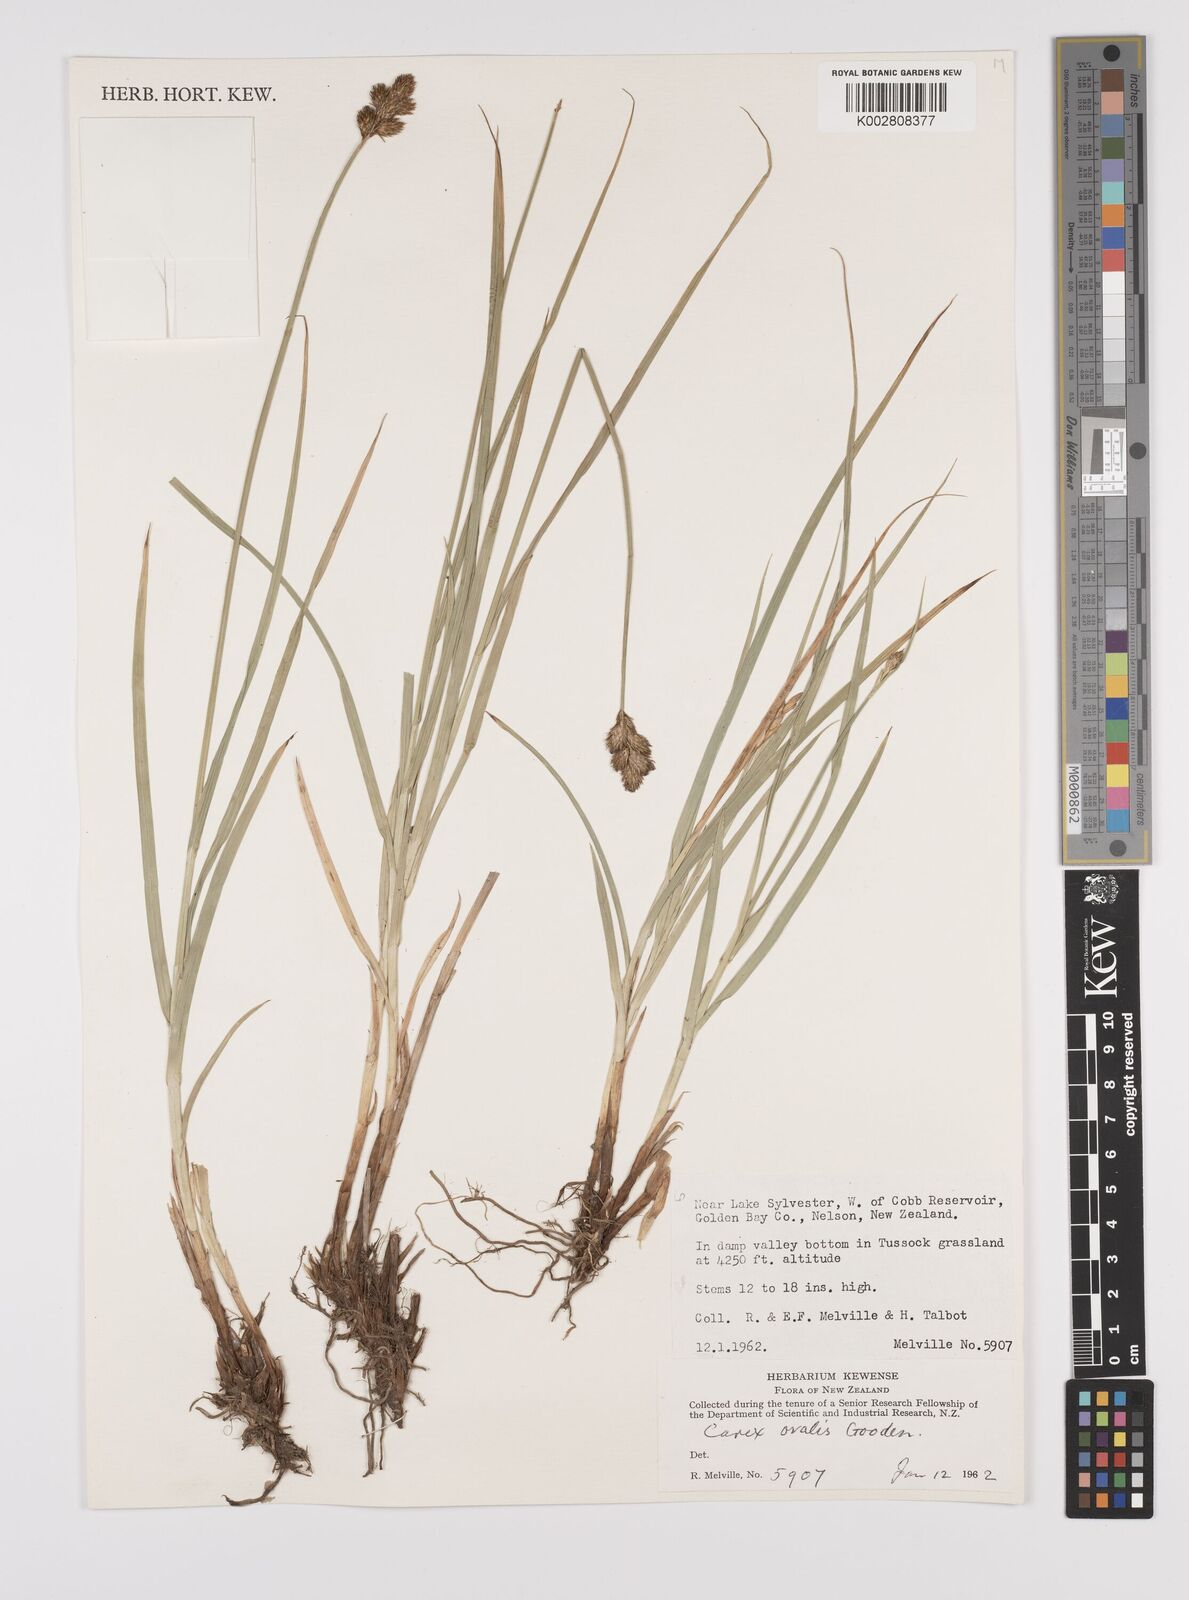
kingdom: Plantae
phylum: Tracheophyta
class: Liliopsida
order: Poales
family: Cyperaceae
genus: Carex
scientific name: Carex leporina
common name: Oval sedge
